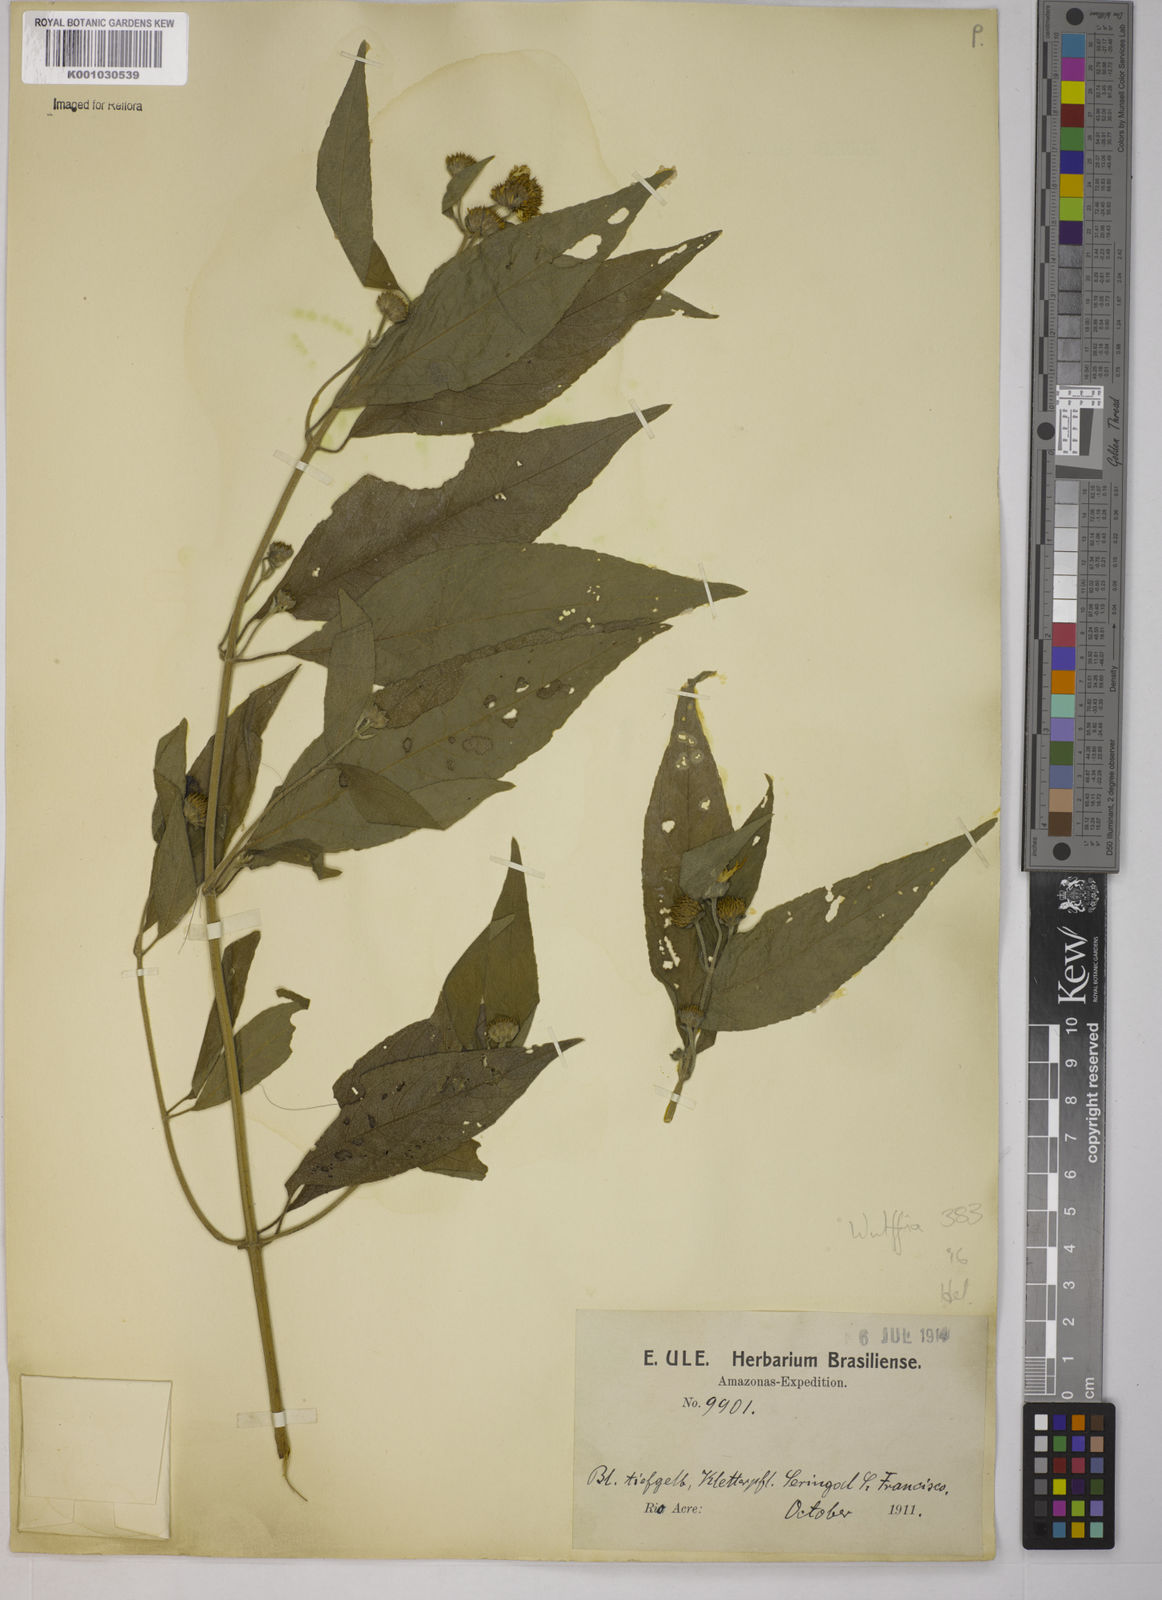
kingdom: Plantae
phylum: Tracheophyta
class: Magnoliopsida
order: Asterales
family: Asteraceae
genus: Tilesia
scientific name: Tilesia baccata
